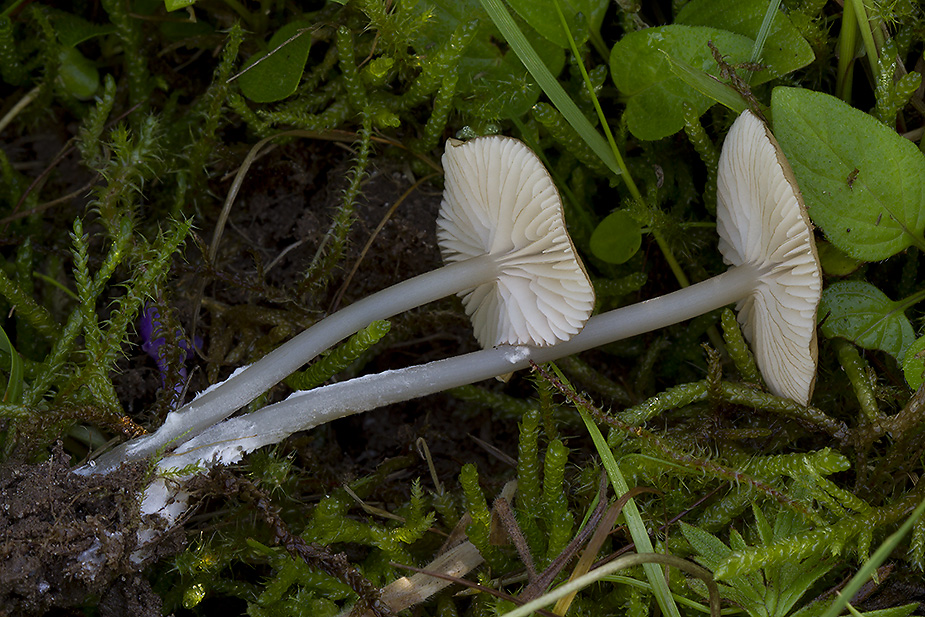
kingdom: Fungi
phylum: Basidiomycota
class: Agaricomycetes
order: Agaricales
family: Entolomataceae
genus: Entoloma
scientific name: Entoloma timidum
